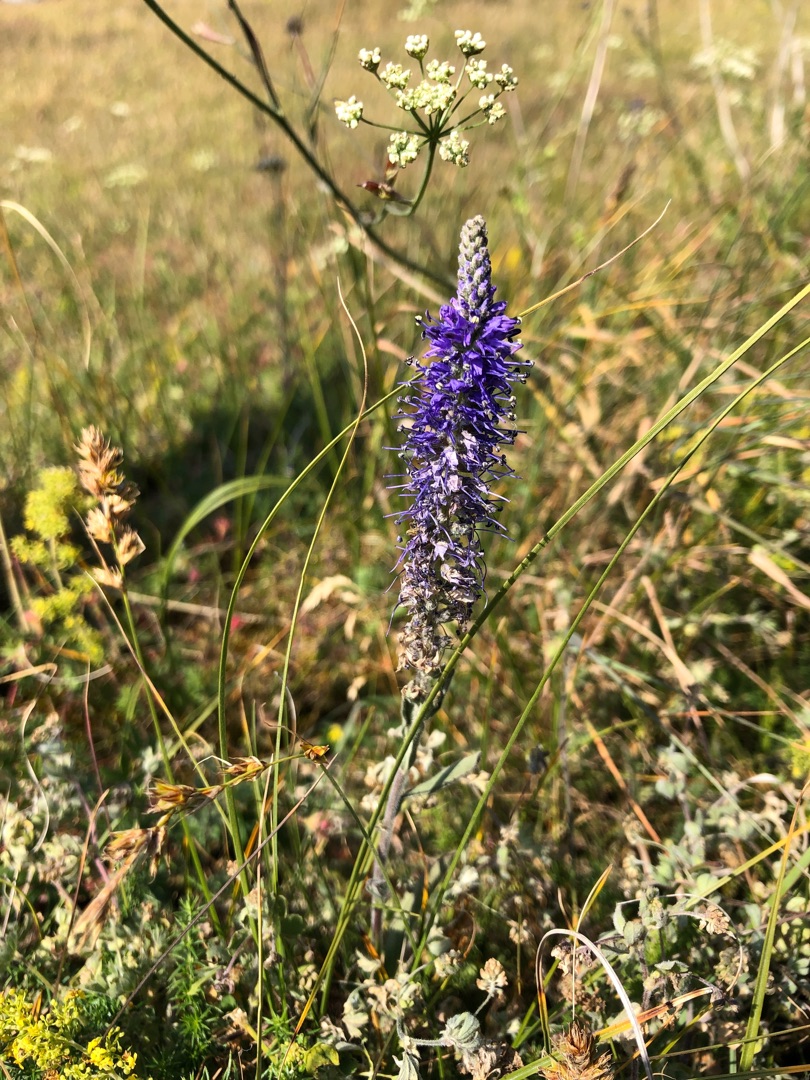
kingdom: Plantae
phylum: Tracheophyta
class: Magnoliopsida
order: Lamiales
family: Plantaginaceae
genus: Veronica
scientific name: Veronica spicata
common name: Aks-ærenpris
